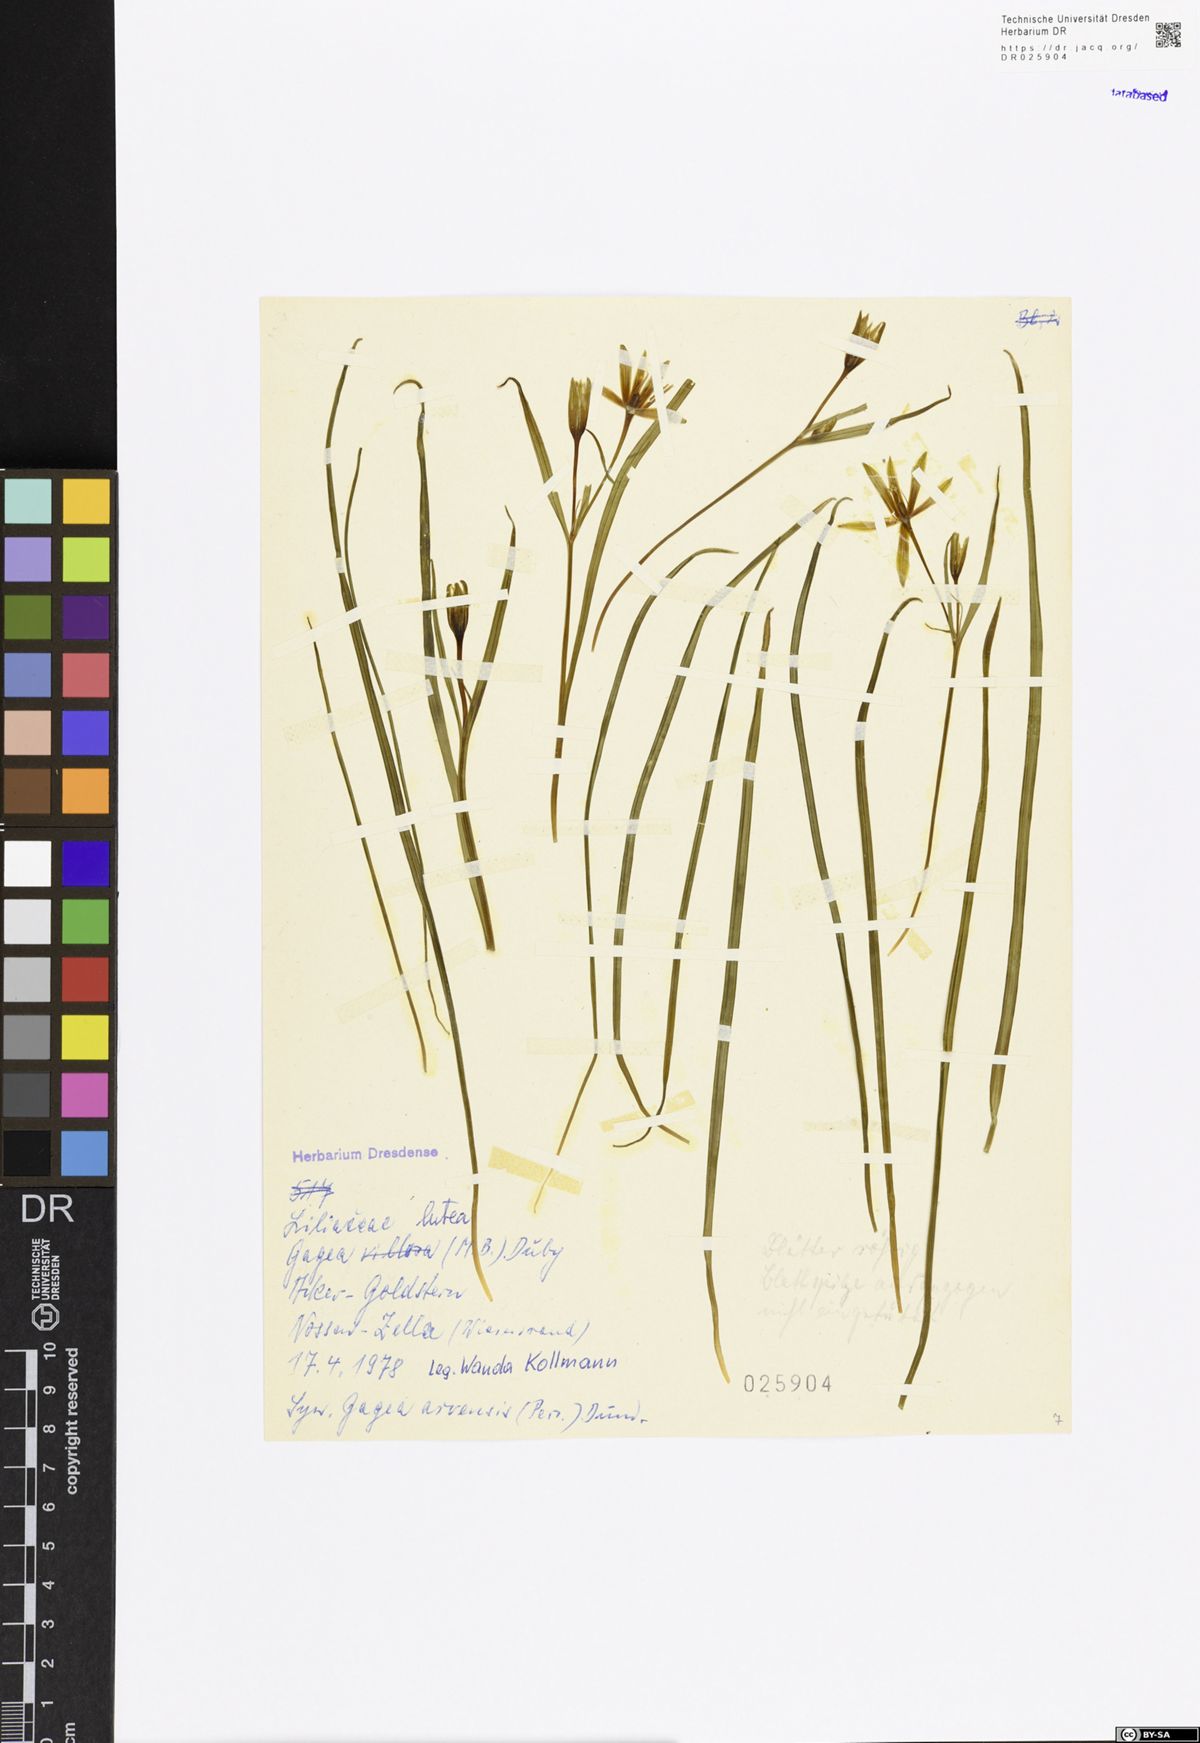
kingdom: Plantae
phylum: Tracheophyta
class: Liliopsida
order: Liliales
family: Liliaceae
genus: Gagea
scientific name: Gagea lutea
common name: Yellow star-of-bethlehem
